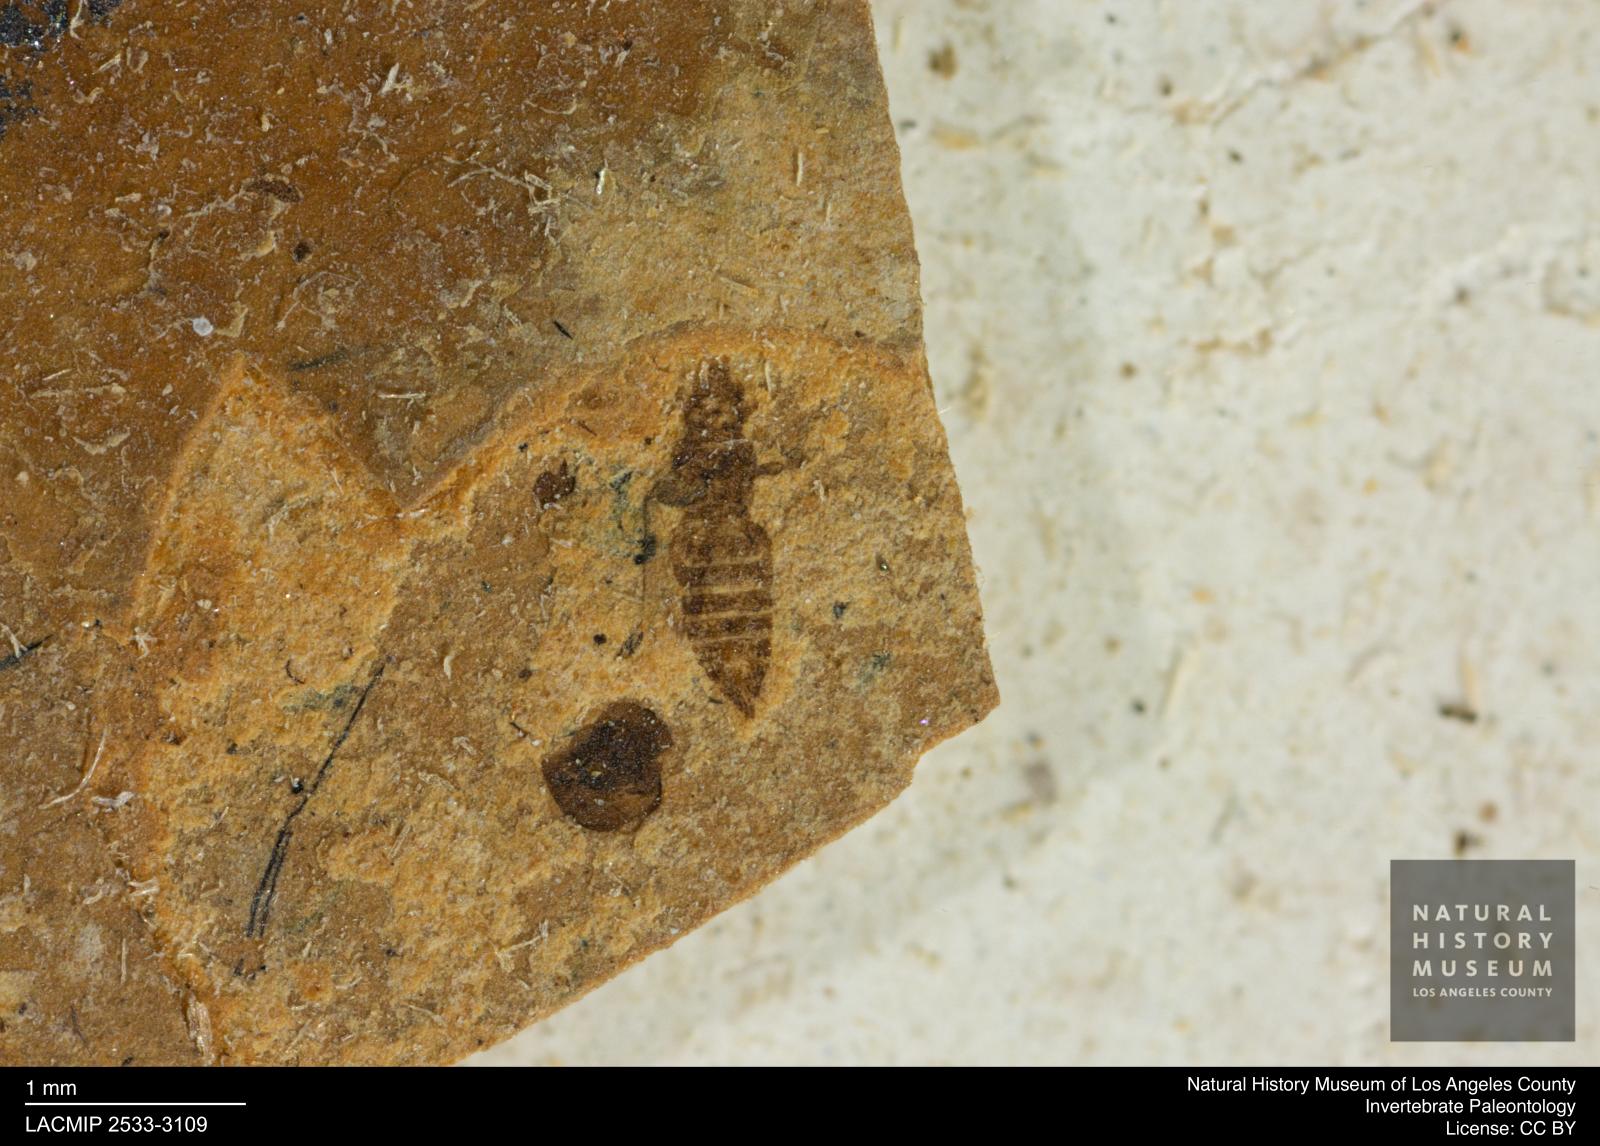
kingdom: Animalia
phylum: Arthropoda
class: Insecta
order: Thysanoptera
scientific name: Thysanoptera
